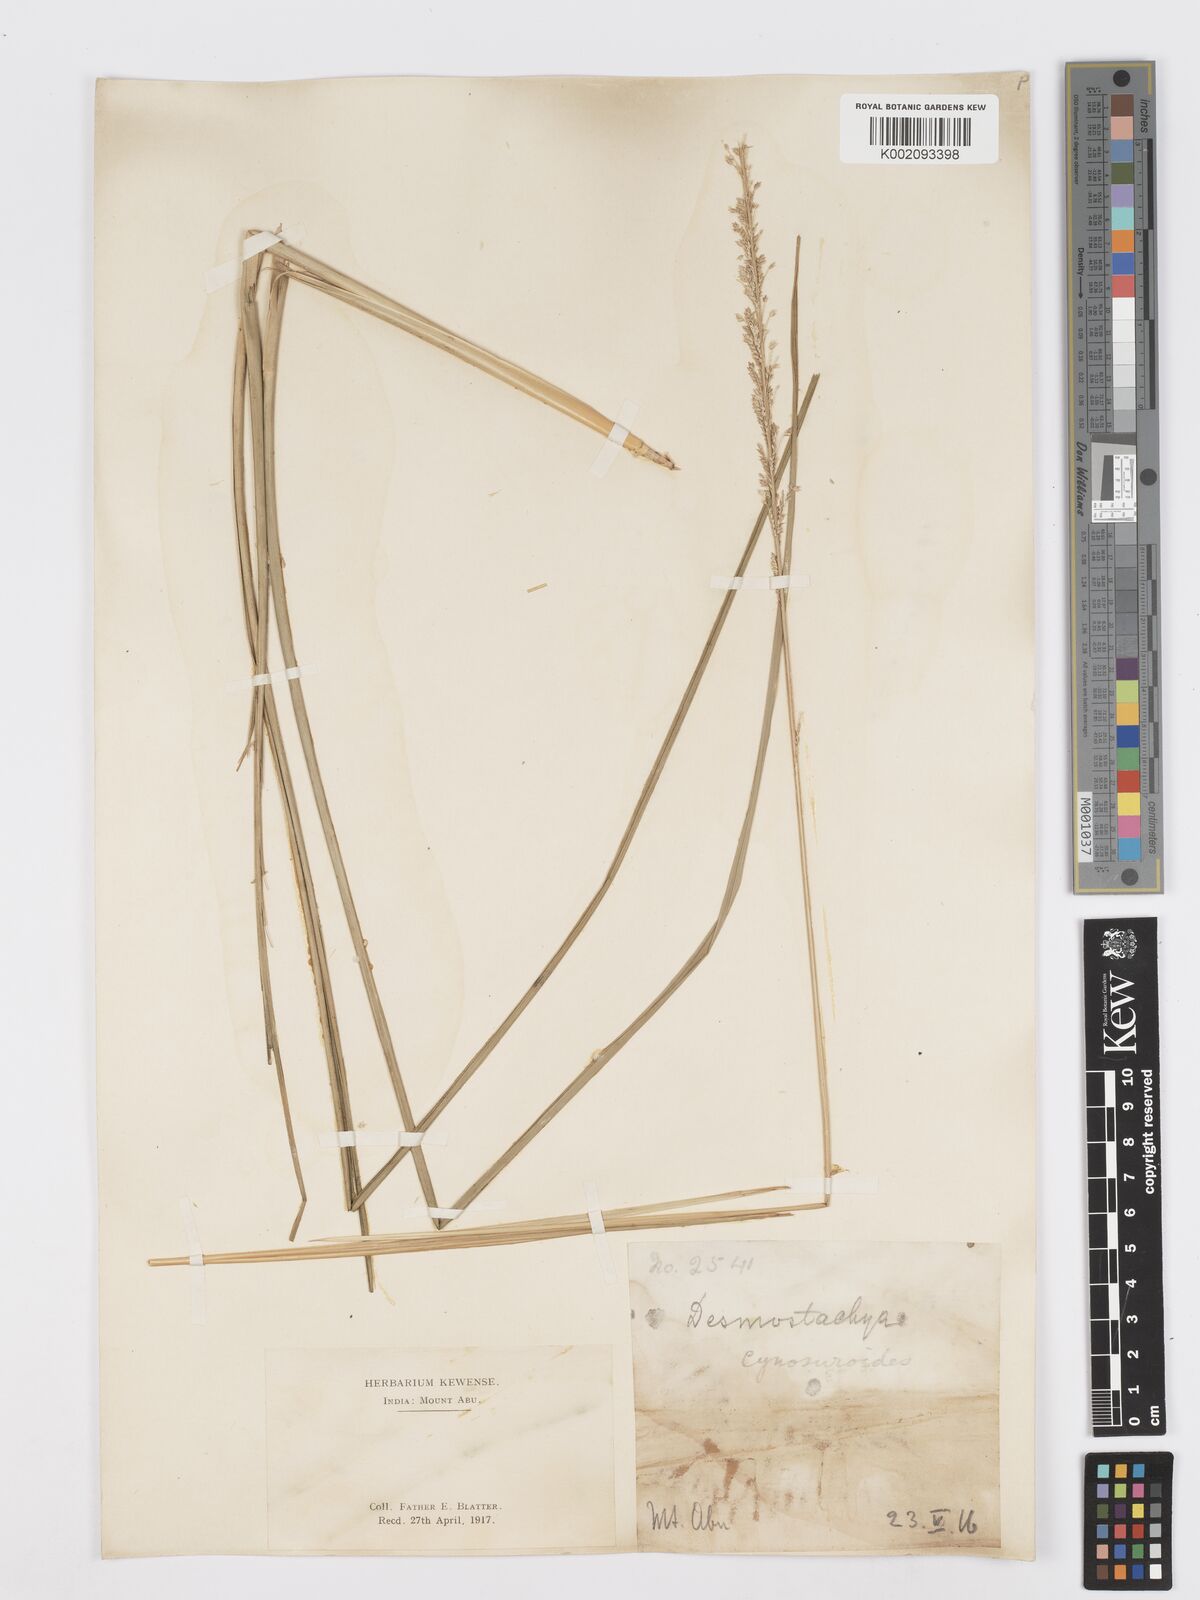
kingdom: Plantae
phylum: Tracheophyta
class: Liliopsida
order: Poales
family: Poaceae
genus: Desmostachya
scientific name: Desmostachya bipinnata
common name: Crowfoot grass
